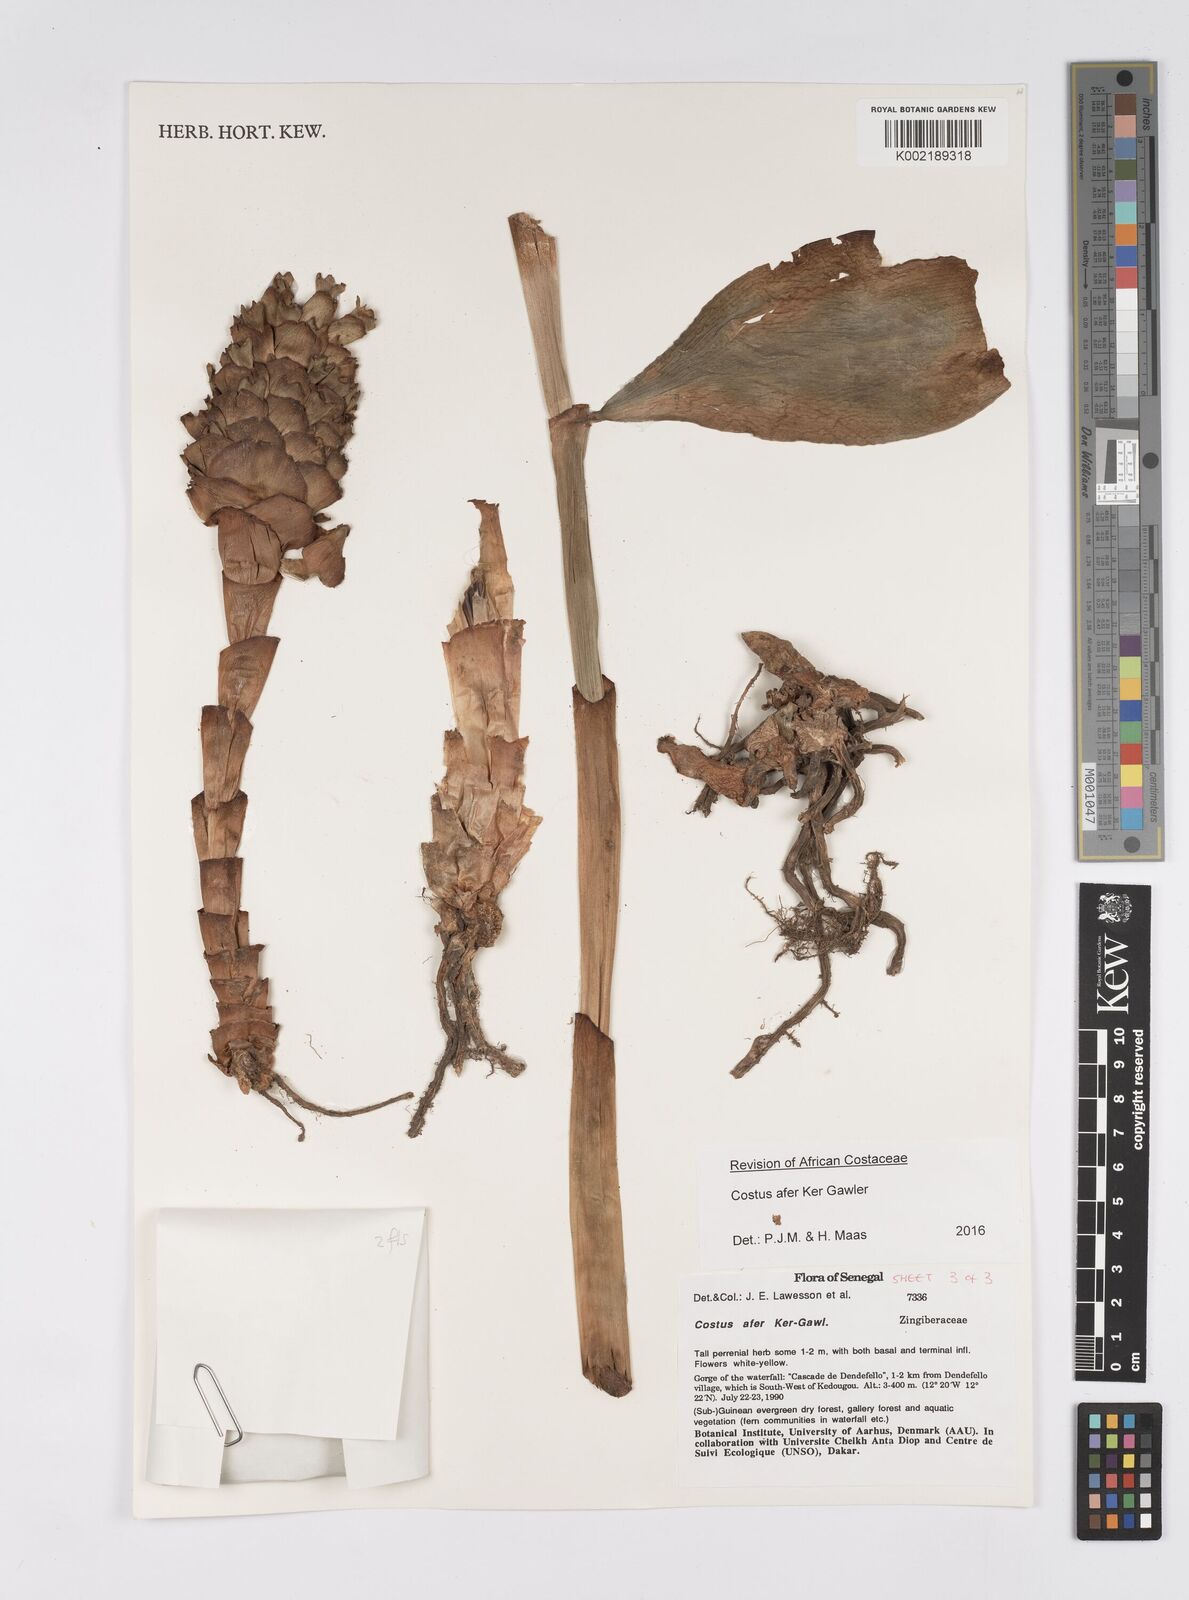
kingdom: Plantae
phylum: Tracheophyta
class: Liliopsida
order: Zingiberales
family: Costaceae
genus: Costus
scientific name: Costus afer
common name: Spiral-ginger
